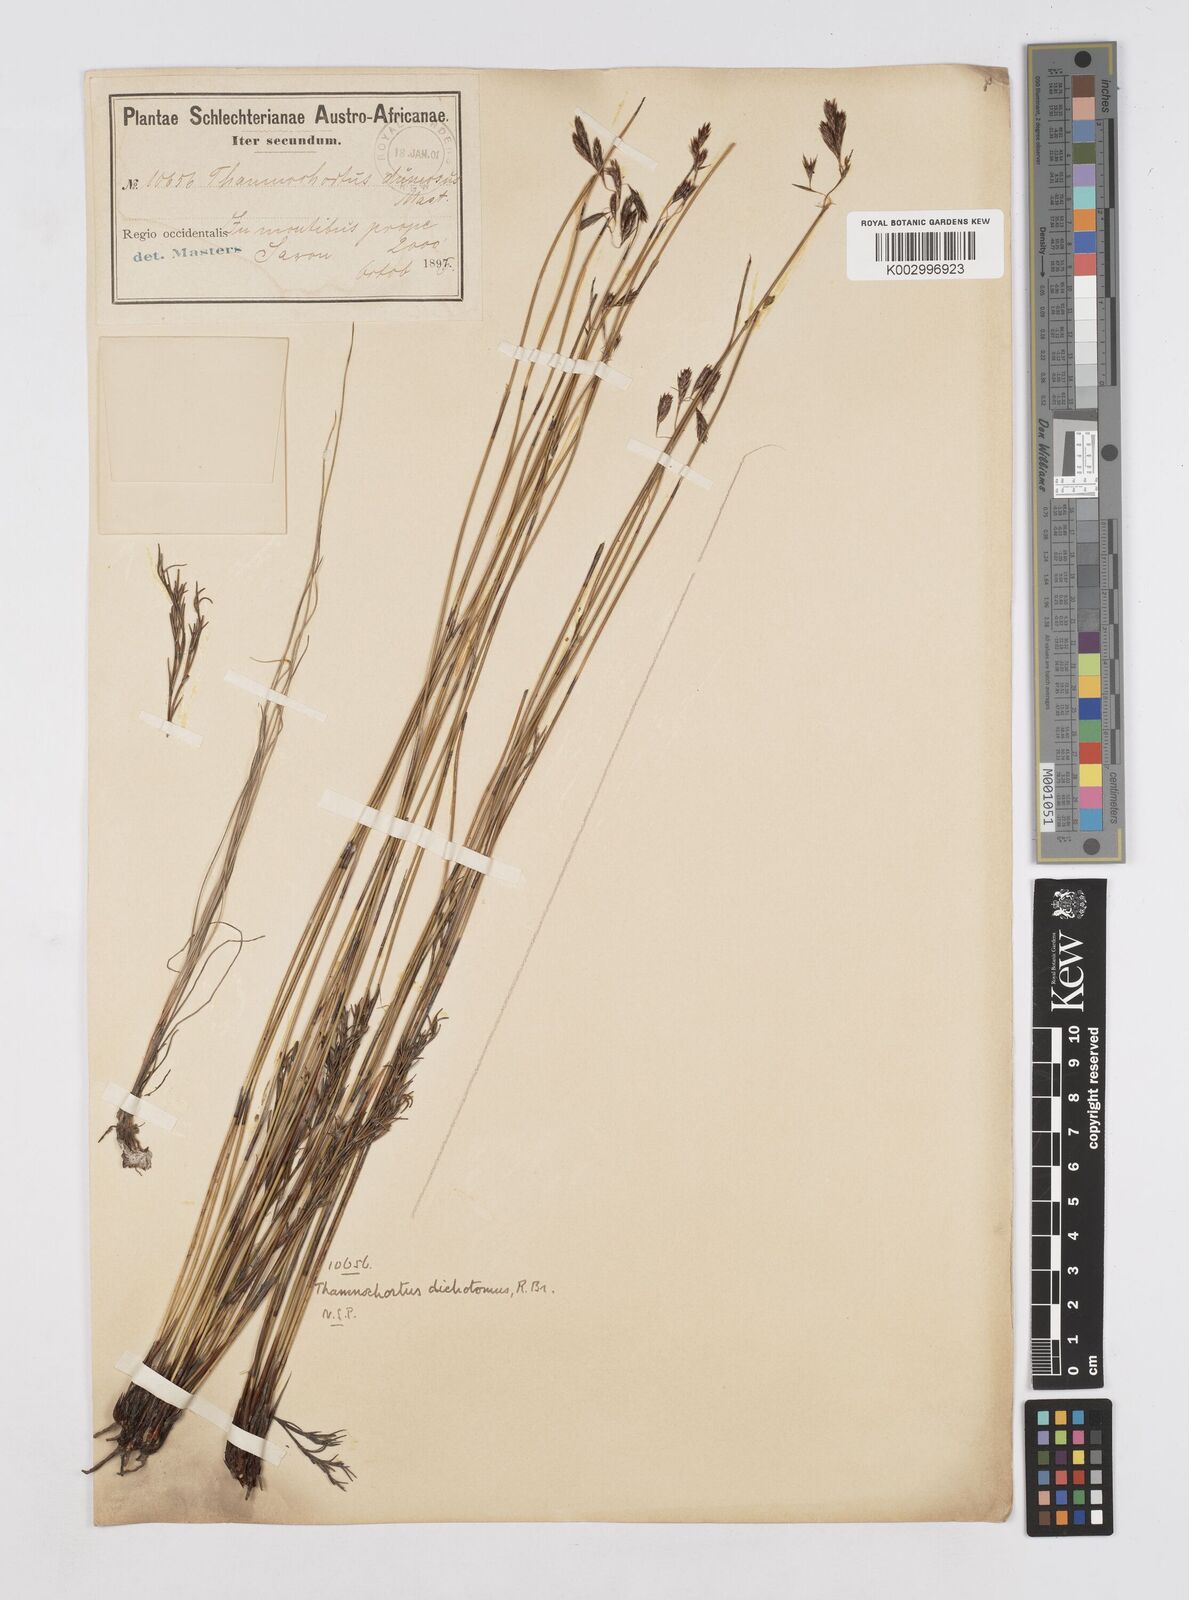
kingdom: Plantae
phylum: Tracheophyta
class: Liliopsida
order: Poales
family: Restionaceae
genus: Thamnochortus
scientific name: Thamnochortus lucens
